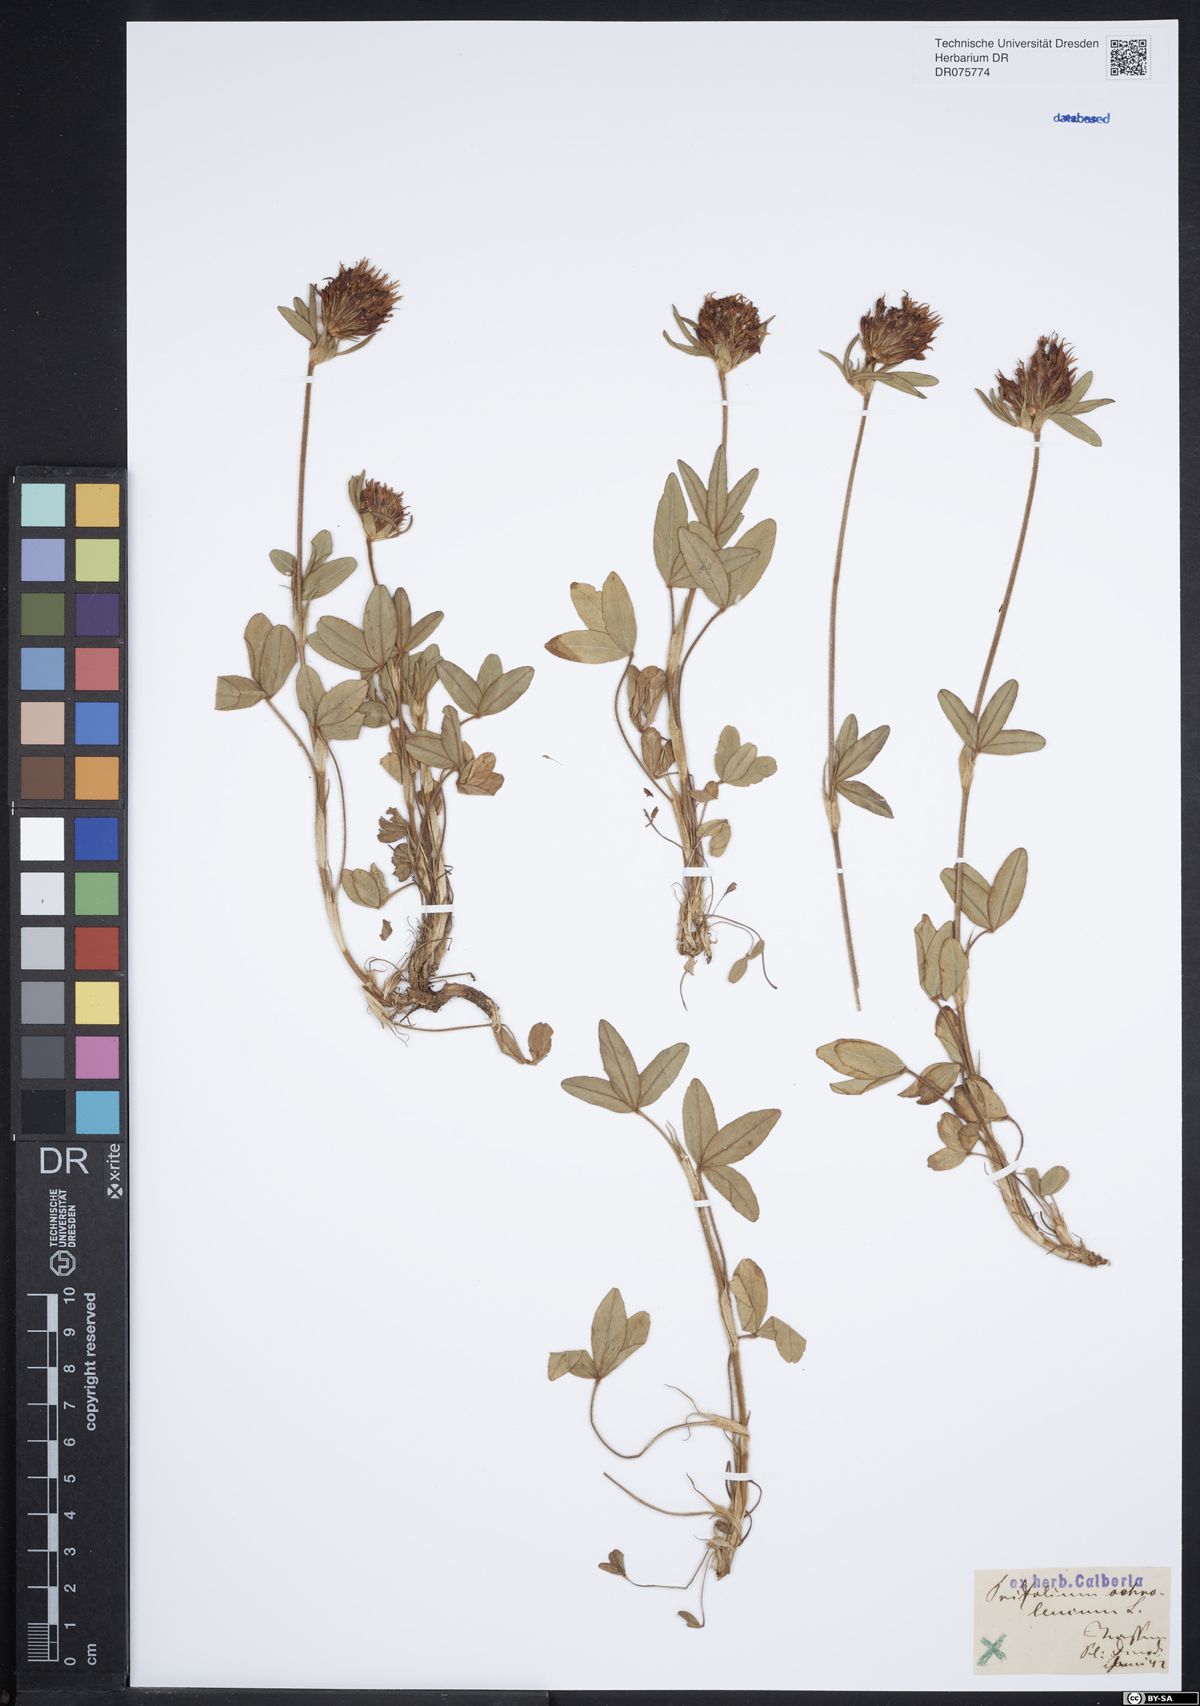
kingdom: Plantae
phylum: Tracheophyta
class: Magnoliopsida
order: Fabales
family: Fabaceae
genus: Trifolium
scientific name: Trifolium ochroleucon
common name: Sulphur clover
